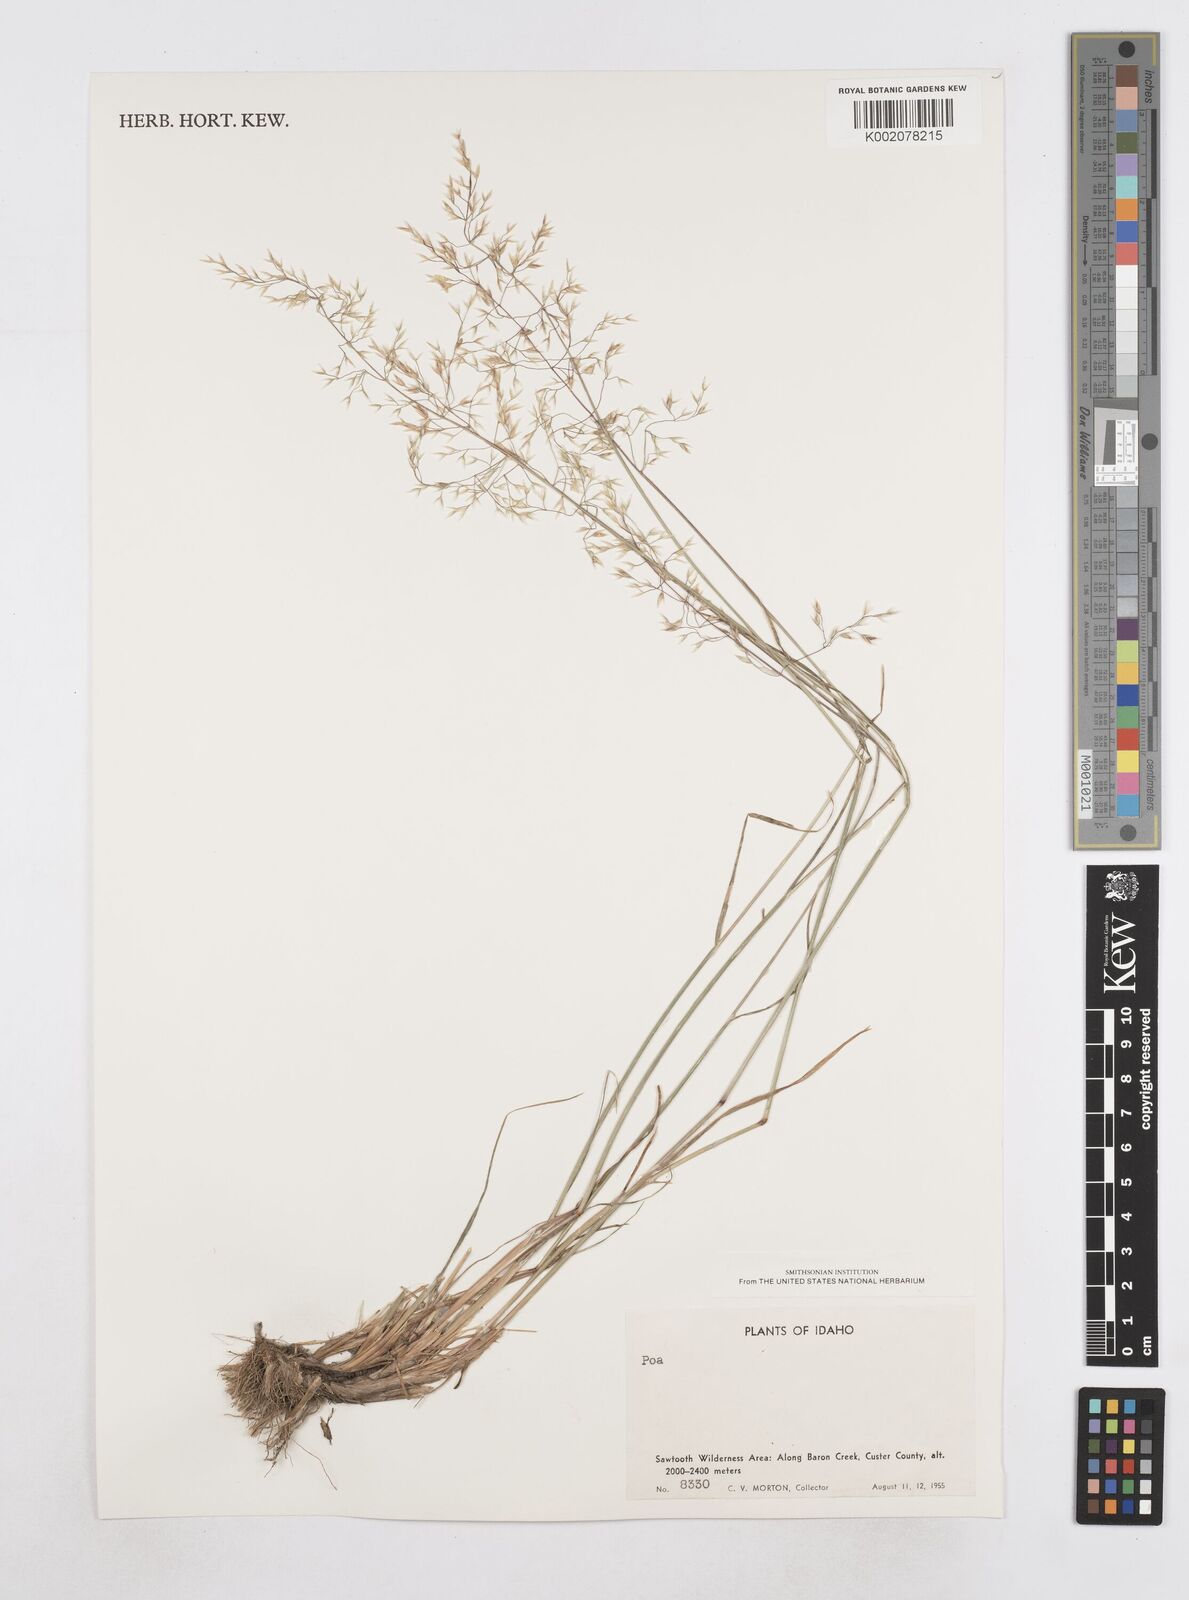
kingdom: Plantae
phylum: Tracheophyta
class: Liliopsida
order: Poales
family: Poaceae
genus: Poa
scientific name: Poa
